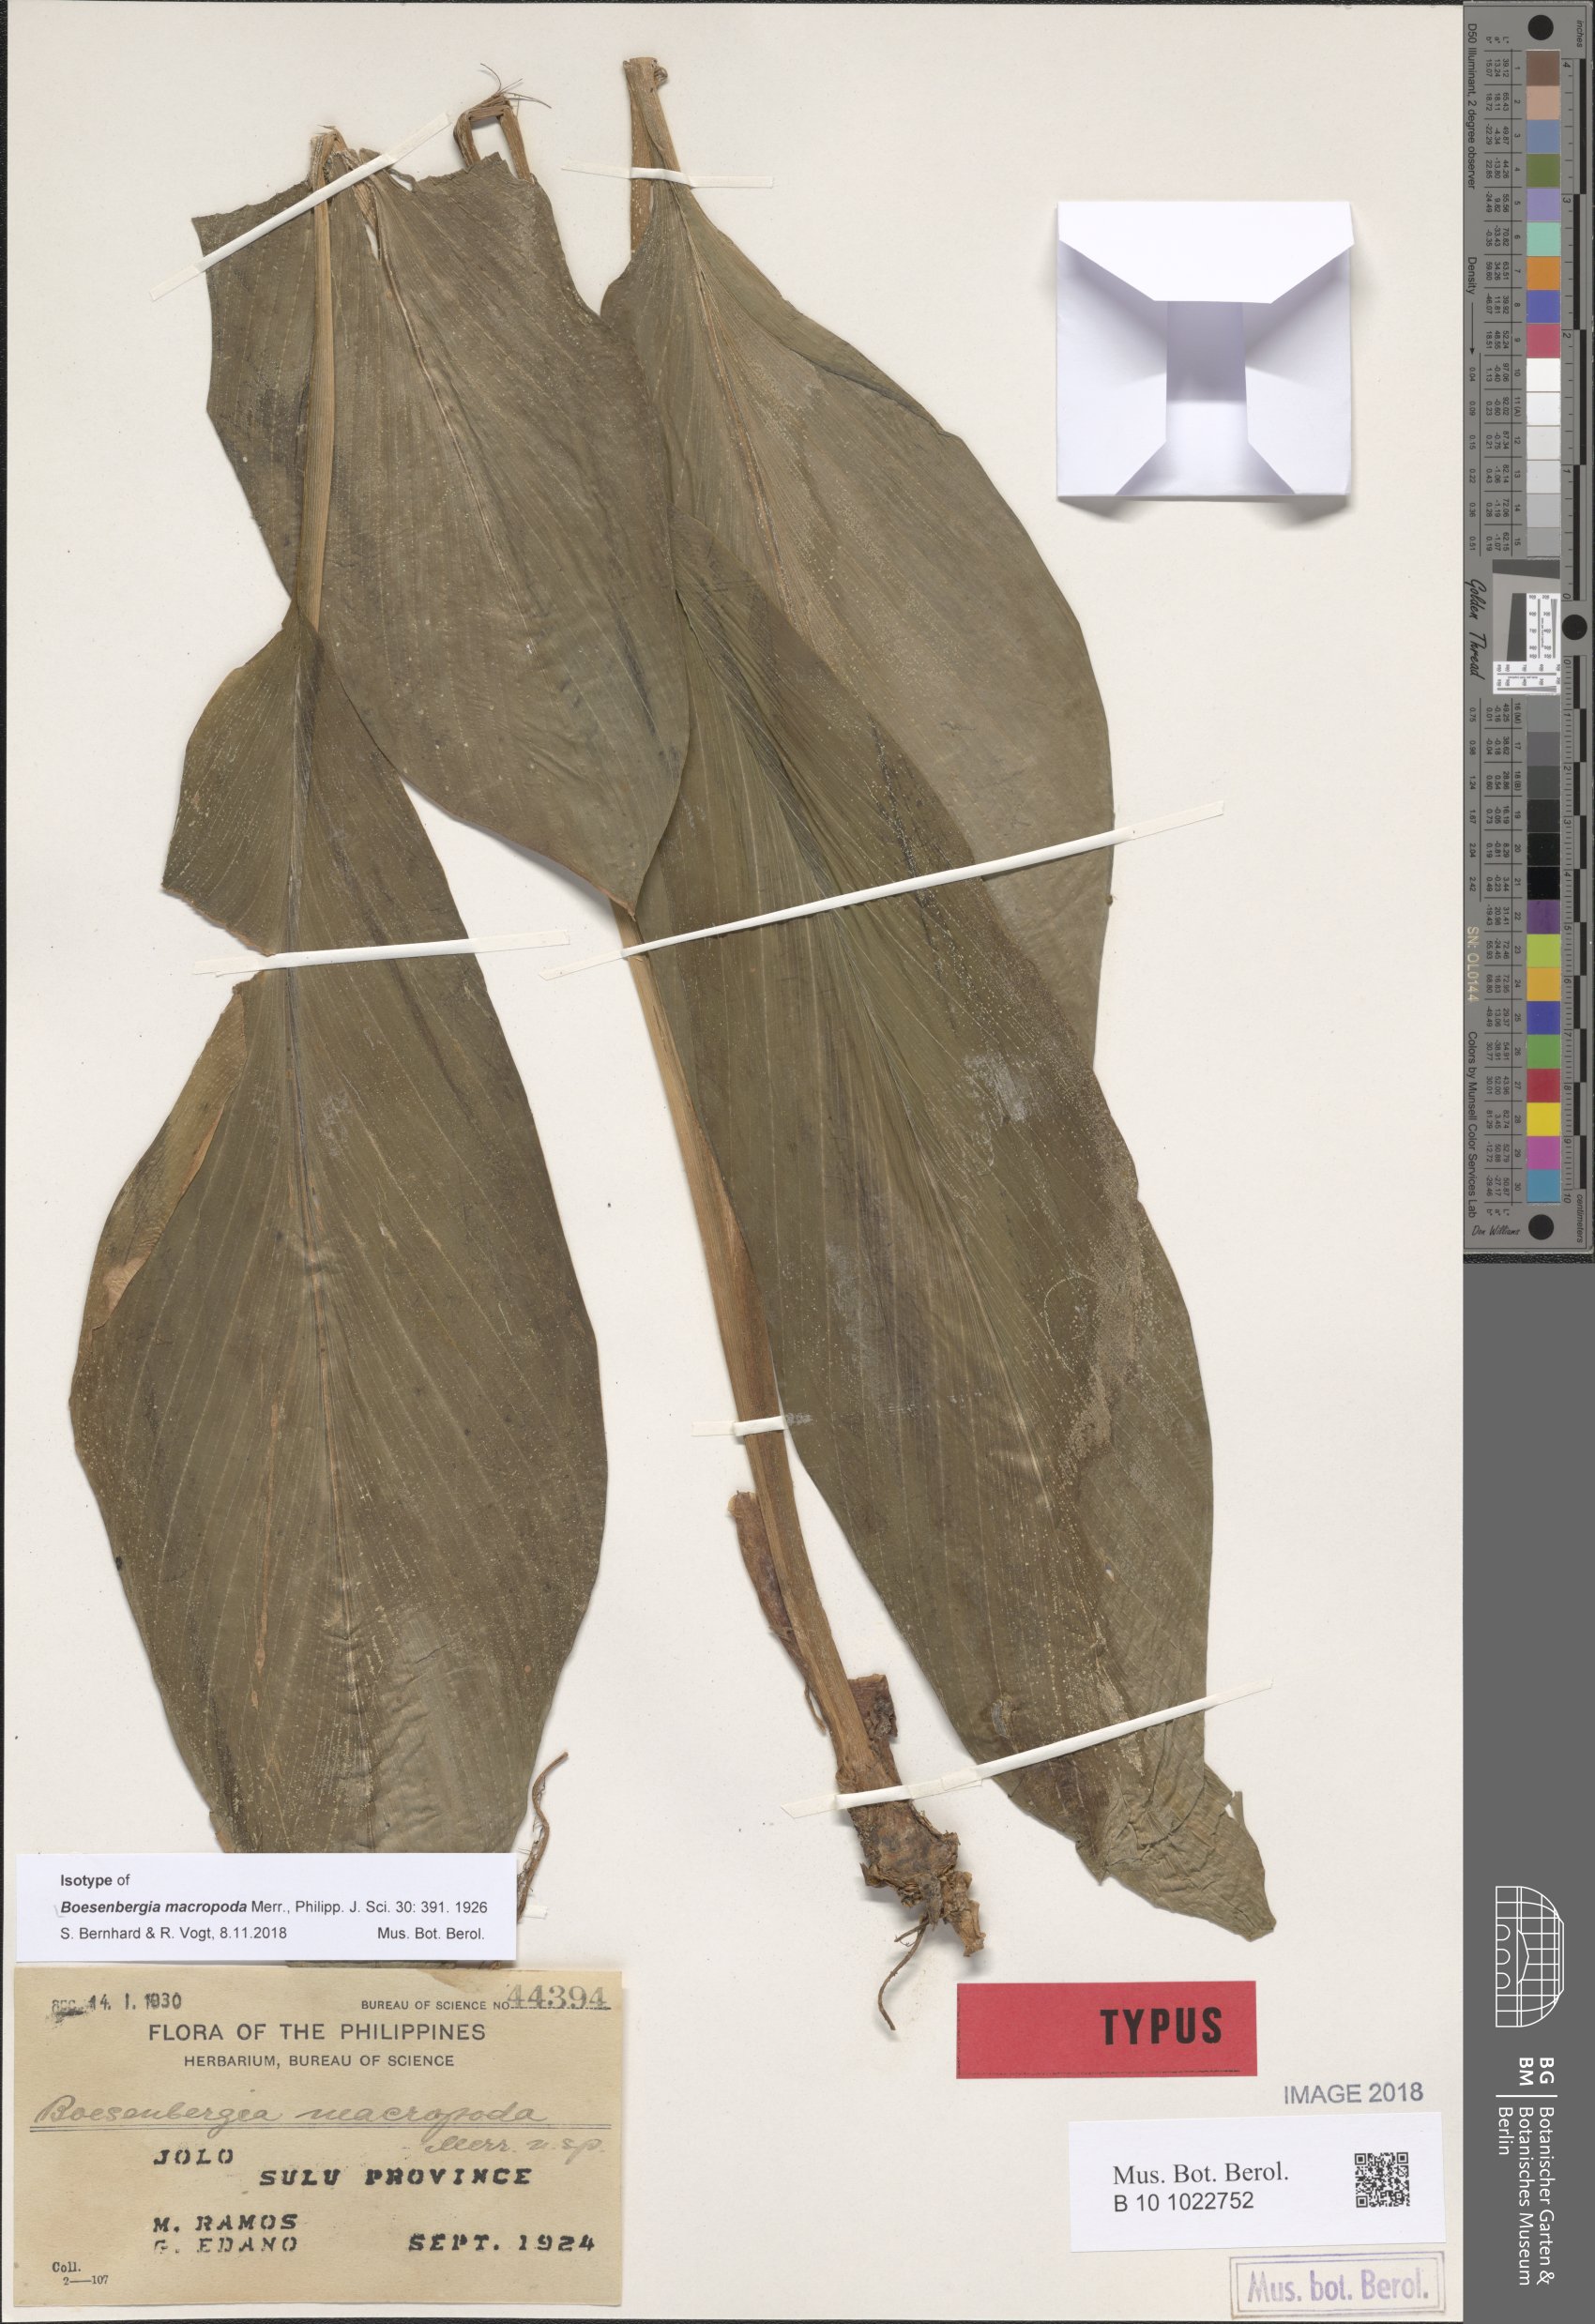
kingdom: Plantae
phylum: Tracheophyta
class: Liliopsida
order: Zingiberales
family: Zingiberaceae
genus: Boesenbergia
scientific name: Boesenbergia macropoda
